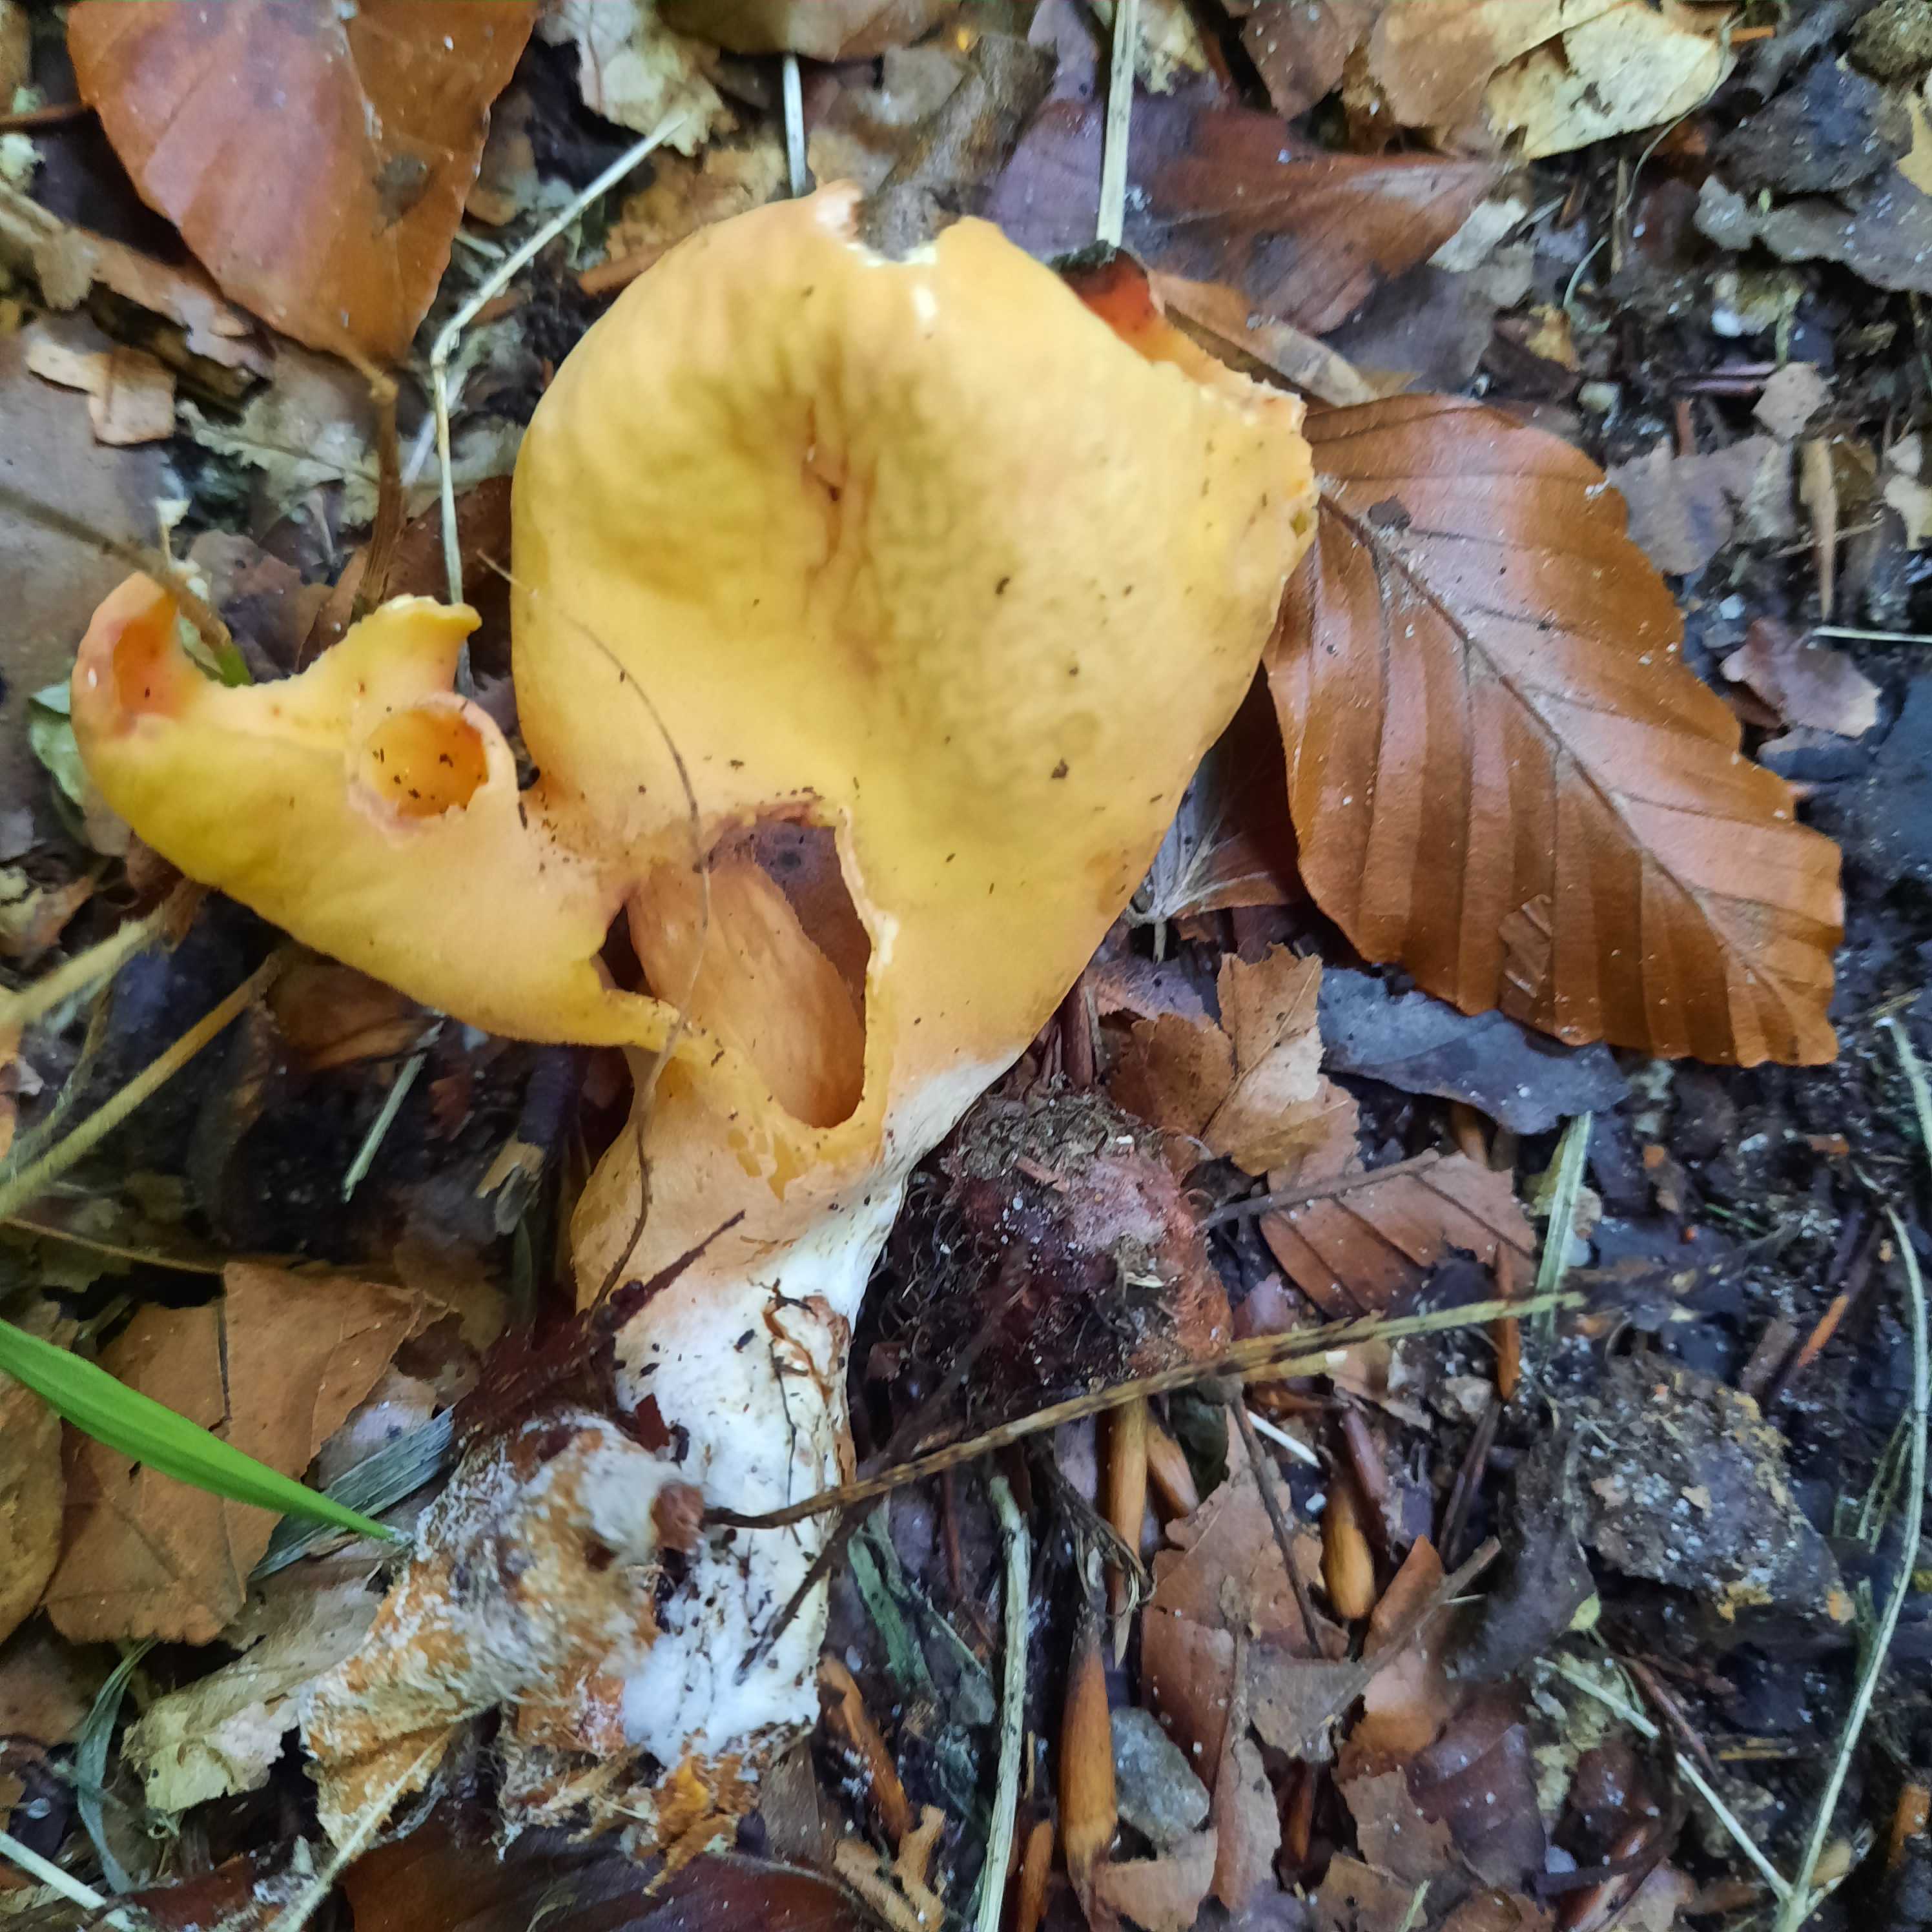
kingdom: Fungi
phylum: Ascomycota
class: Pezizomycetes
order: Pezizales
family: Otideaceae
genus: Otidea
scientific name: Otidea onotica
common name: æsel-ørebæger
